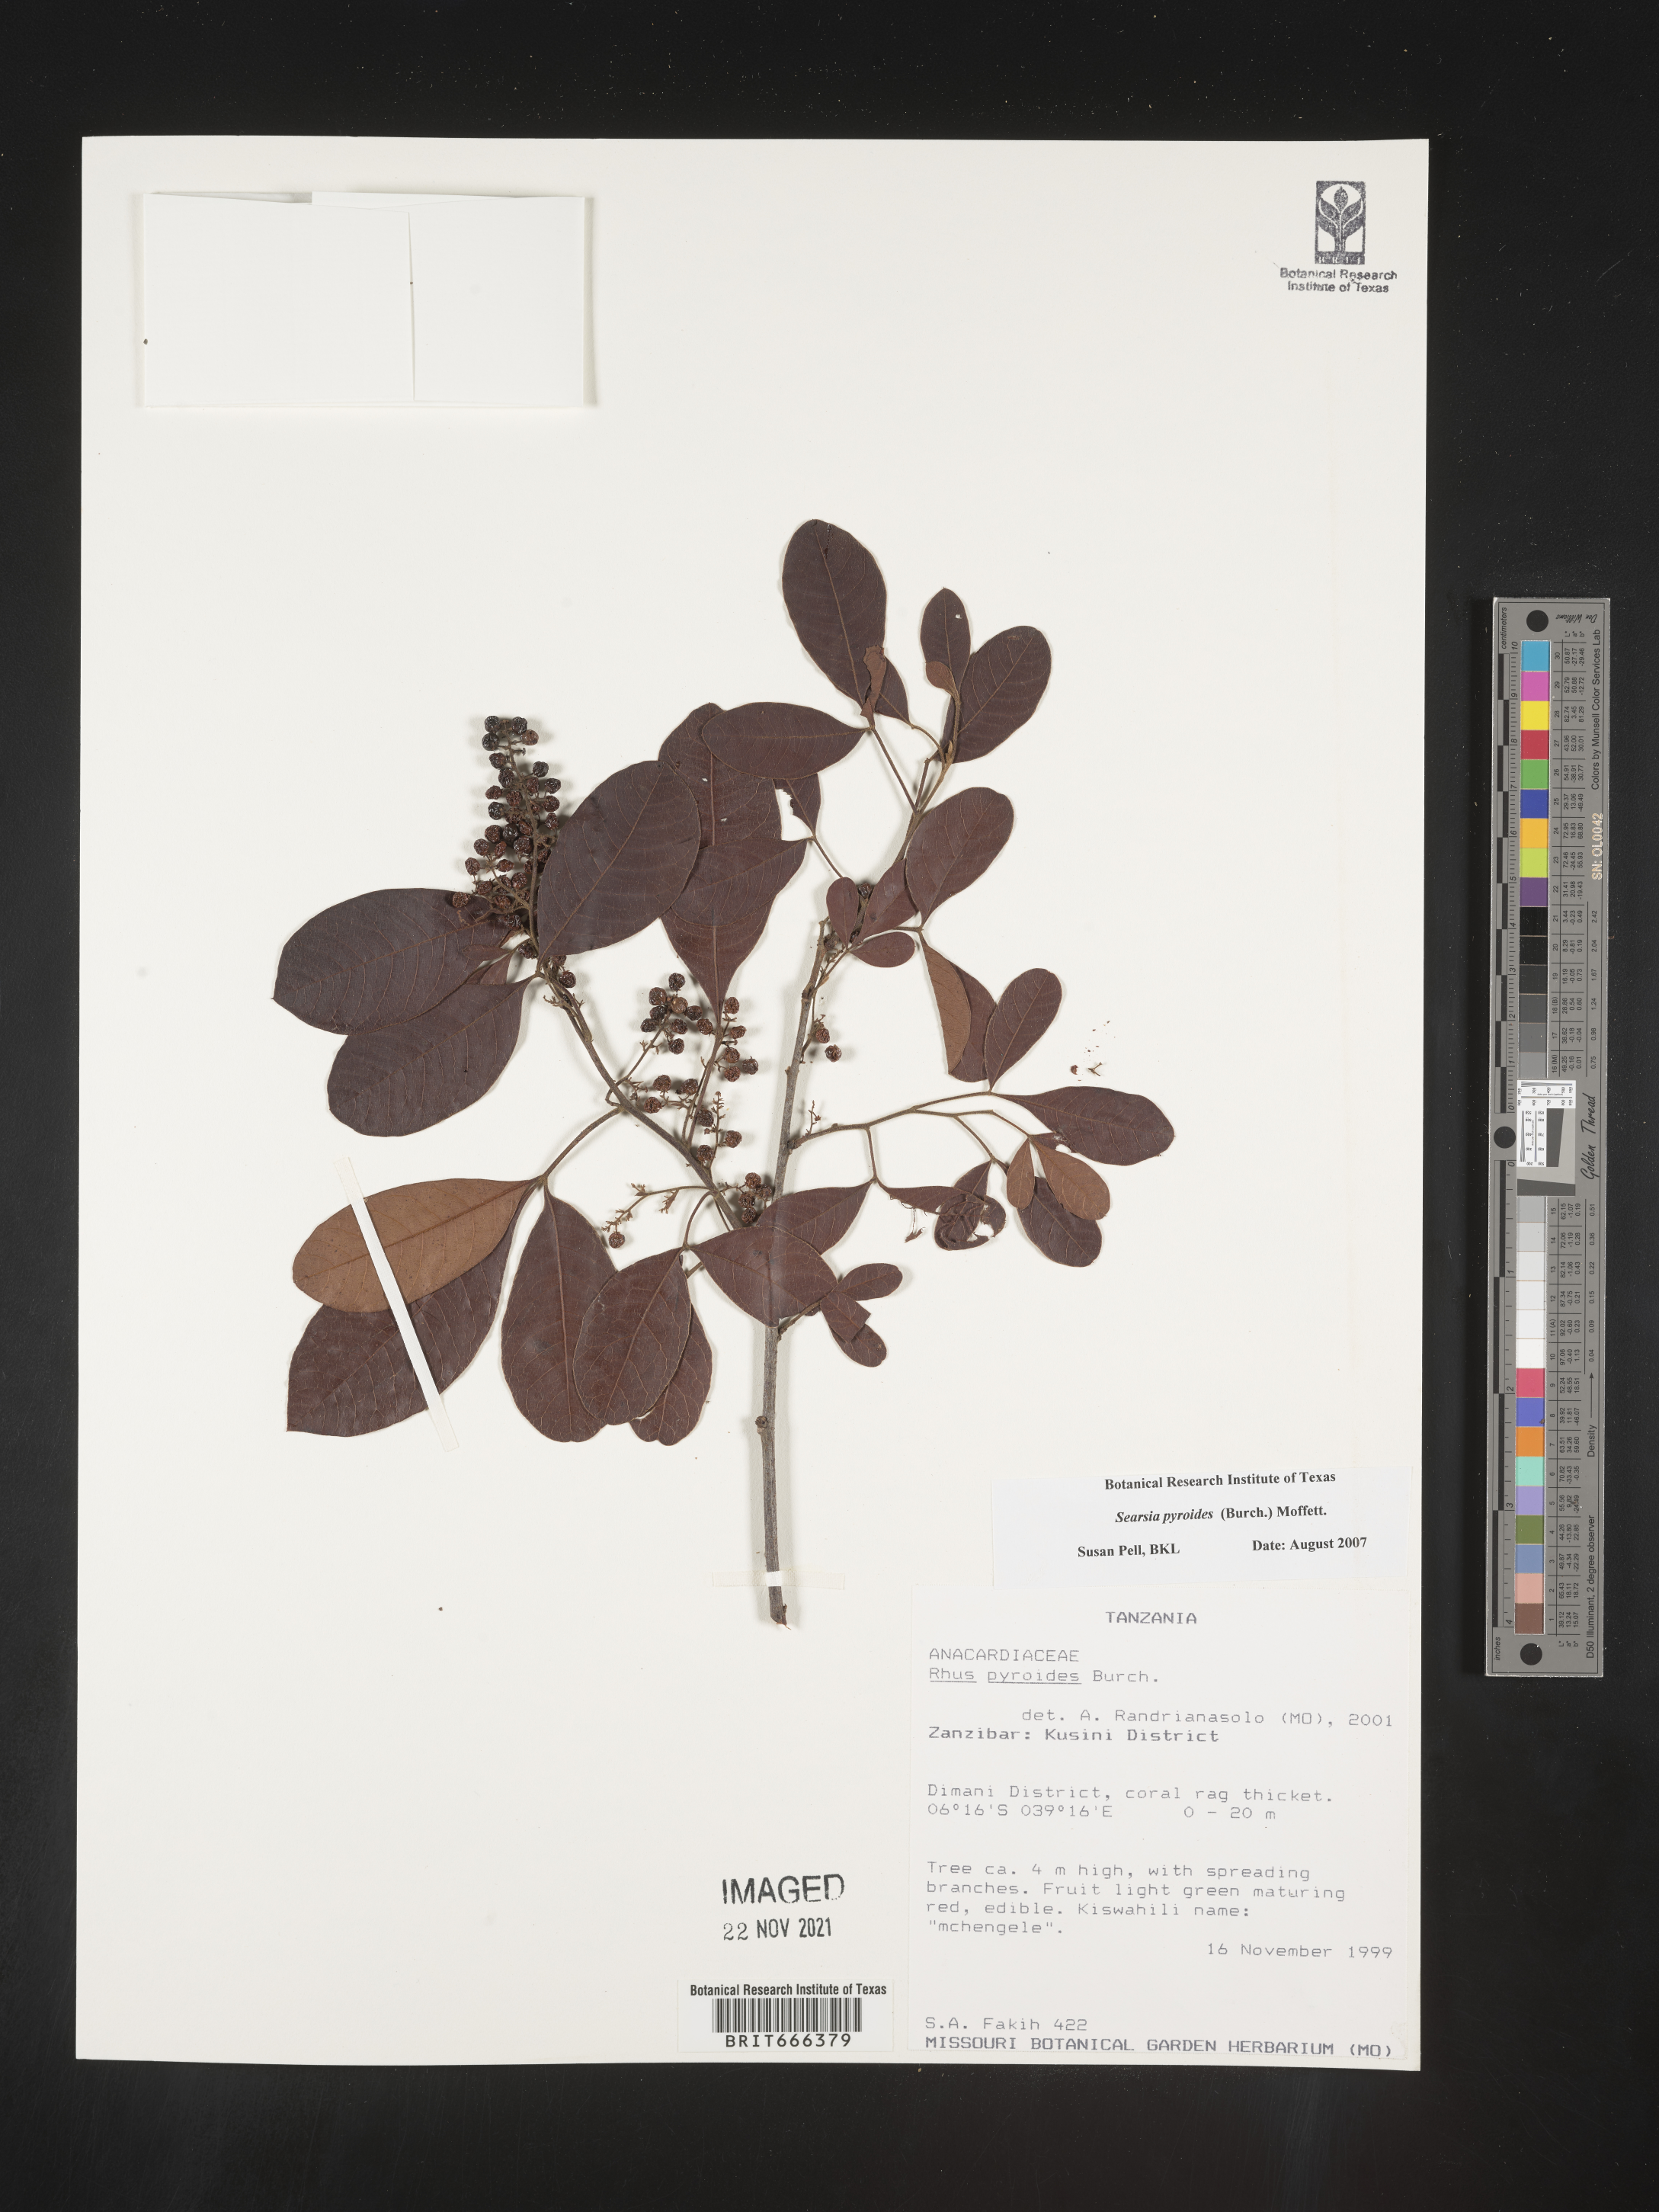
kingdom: Plantae
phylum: Tracheophyta
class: Magnoliopsida
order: Sapindales
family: Anacardiaceae
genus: Searsia
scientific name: Searsia pyroides
